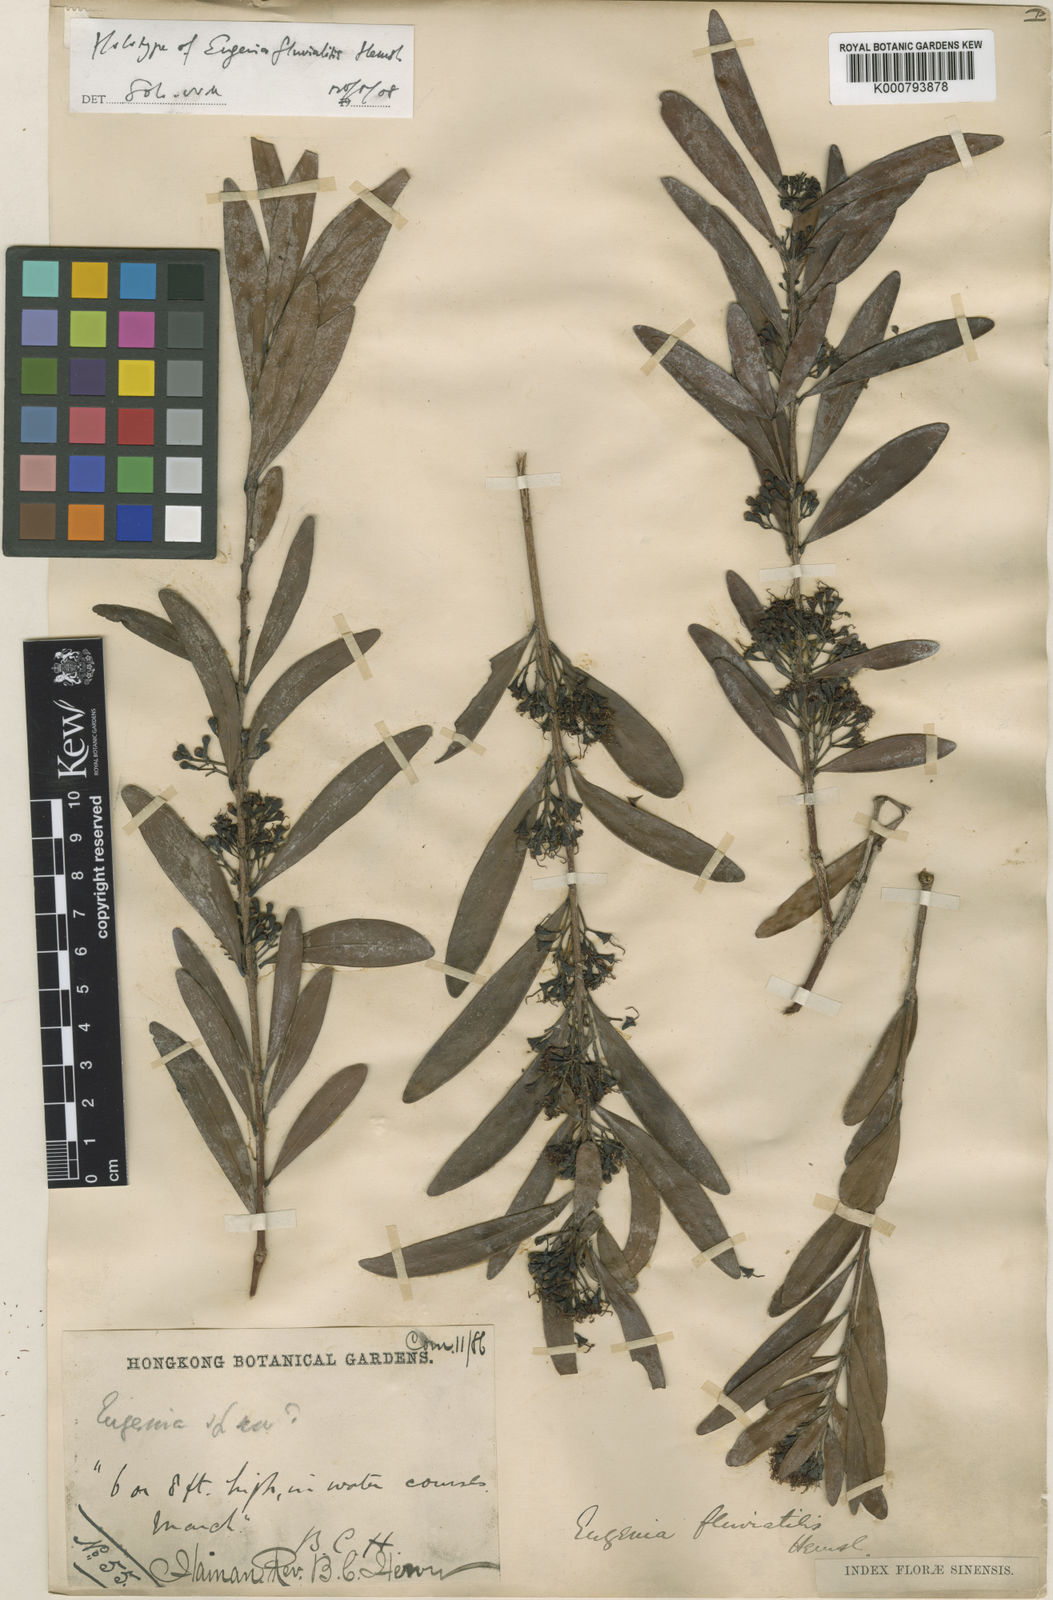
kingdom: Plantae
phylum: Tracheophyta
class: Magnoliopsida
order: Myrtales
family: Myrtaceae
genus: Syzygium
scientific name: Syzygium fluviatile
